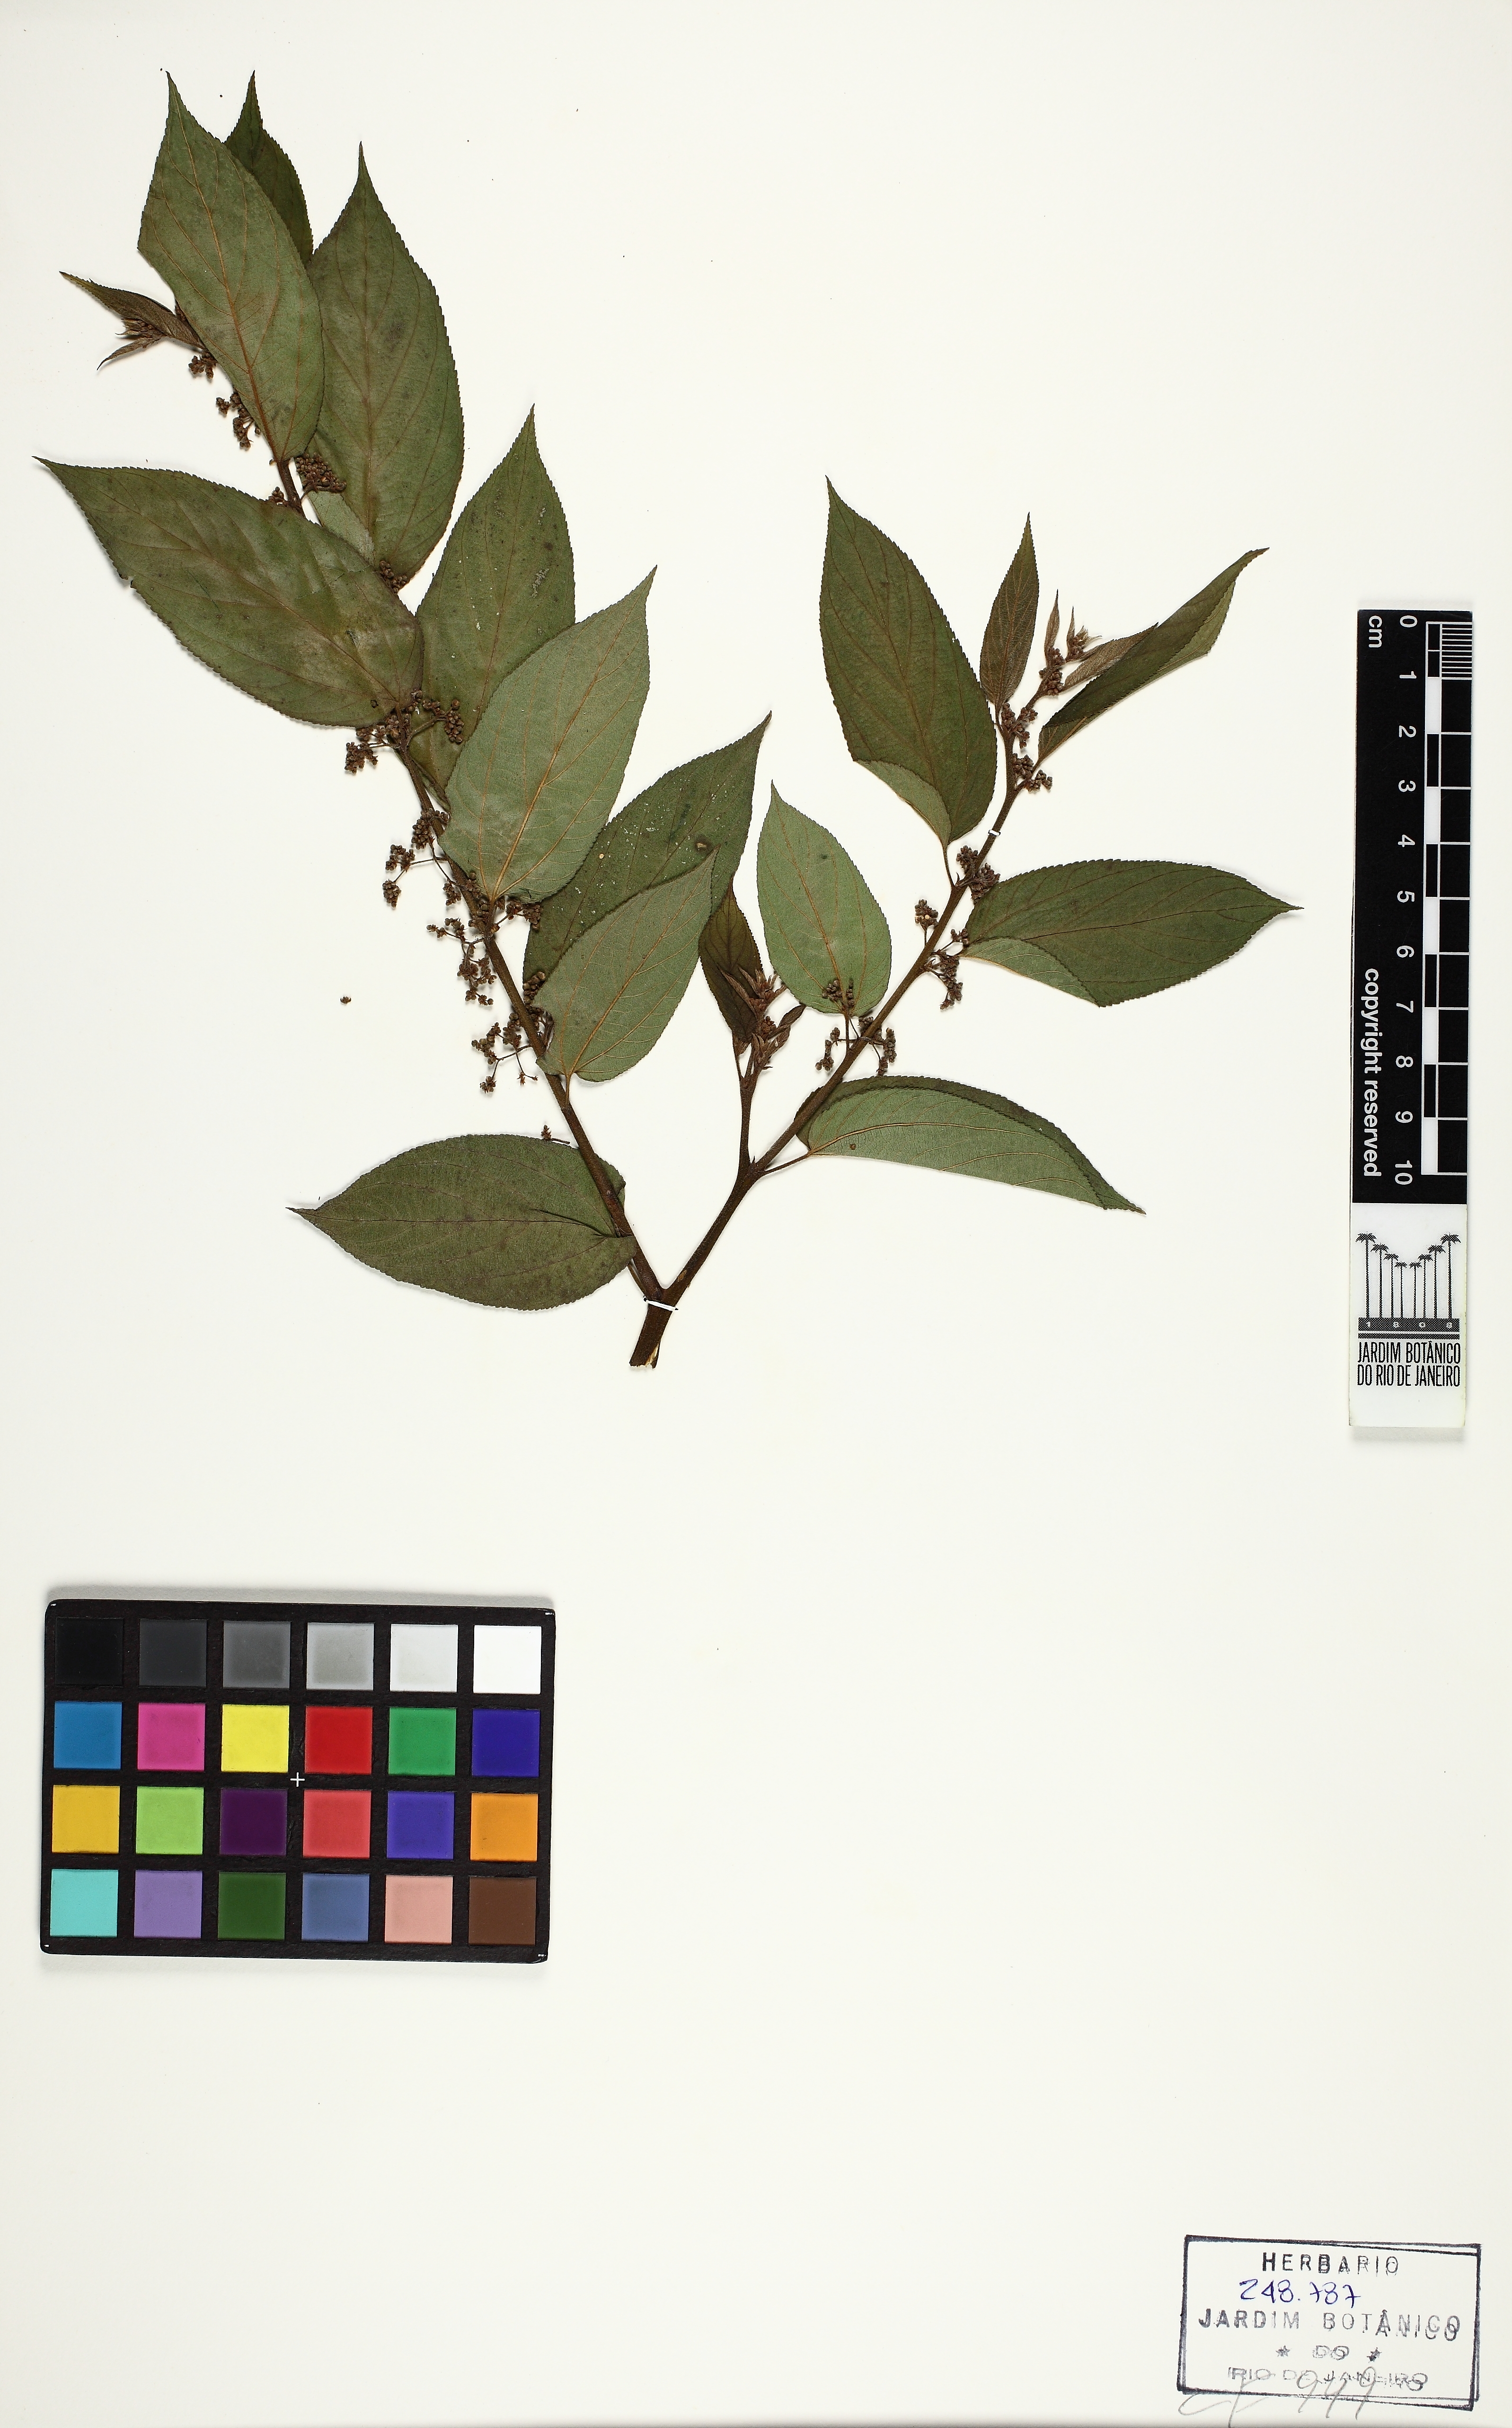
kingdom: Plantae
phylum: Tracheophyta
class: Magnoliopsida
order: Rosales
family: Cannabaceae
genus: Trema
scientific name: Trema micranthum
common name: Jamaican nettletree
